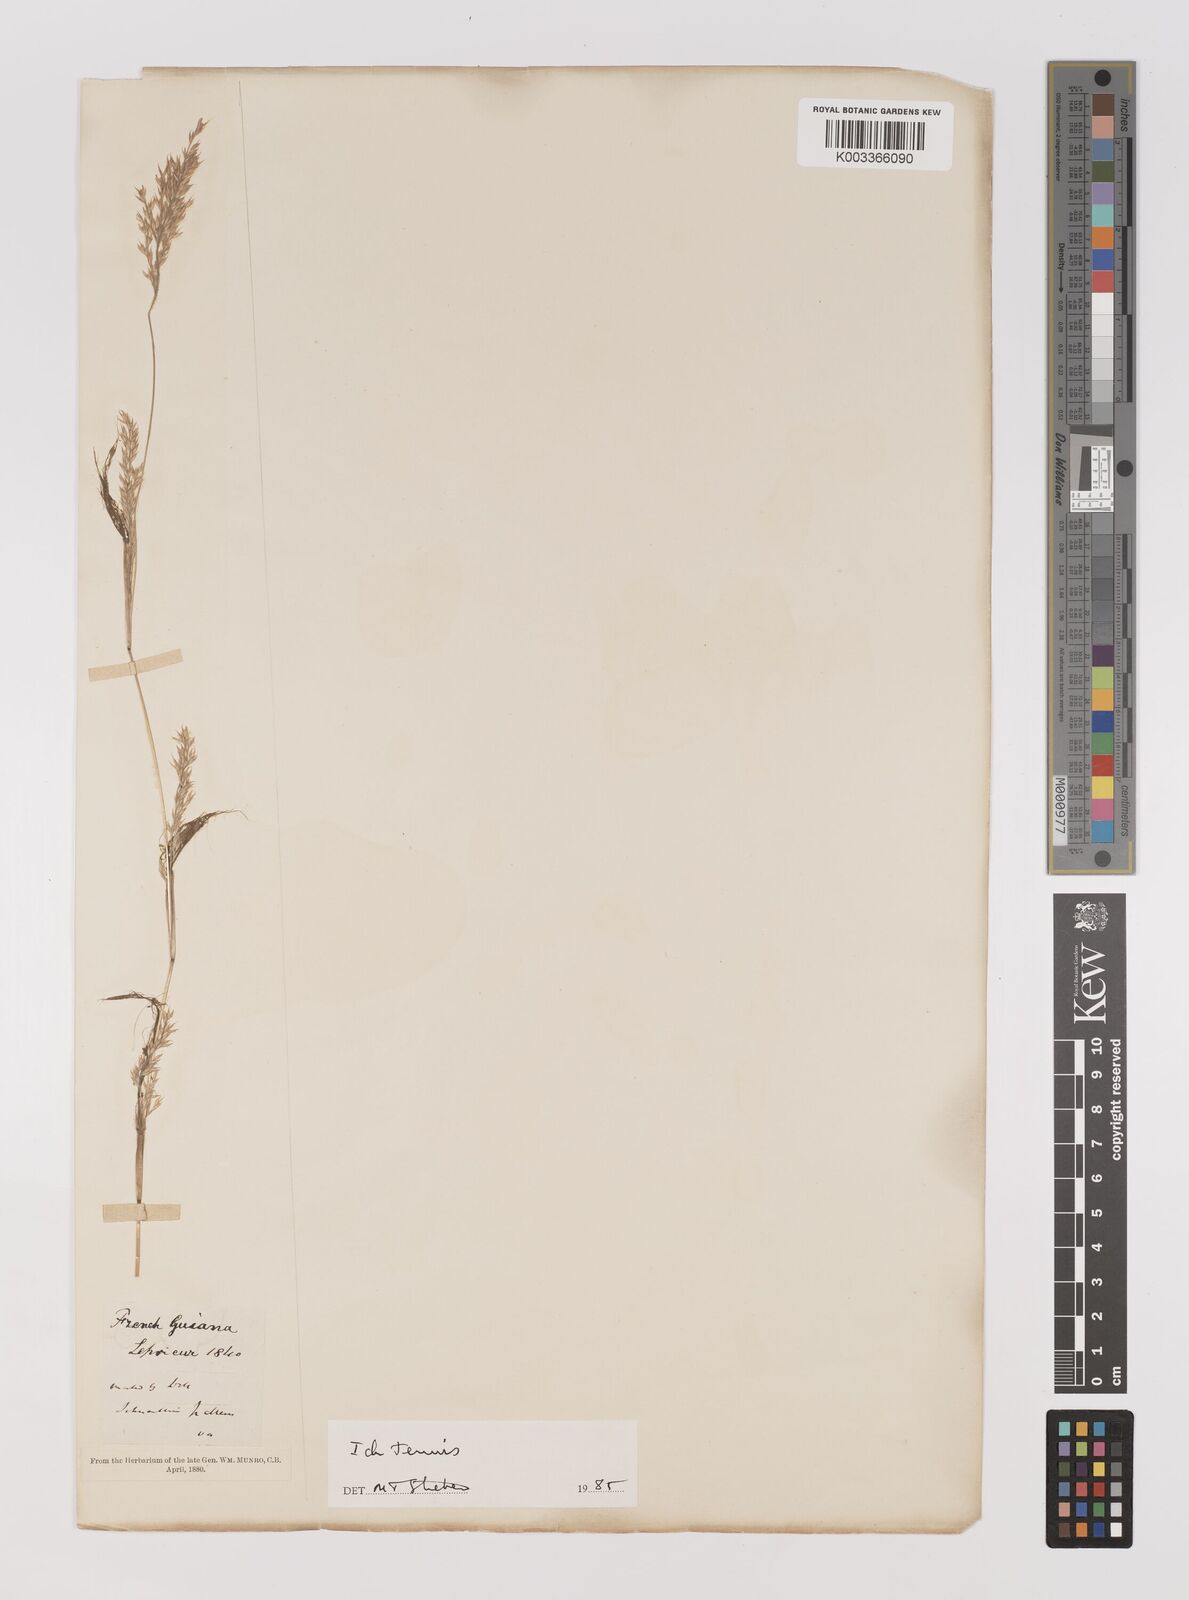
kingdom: Plantae
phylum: Tracheophyta
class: Liliopsida
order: Poales
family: Poaceae
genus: Ichnanthus
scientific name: Ichnanthus tenuis
